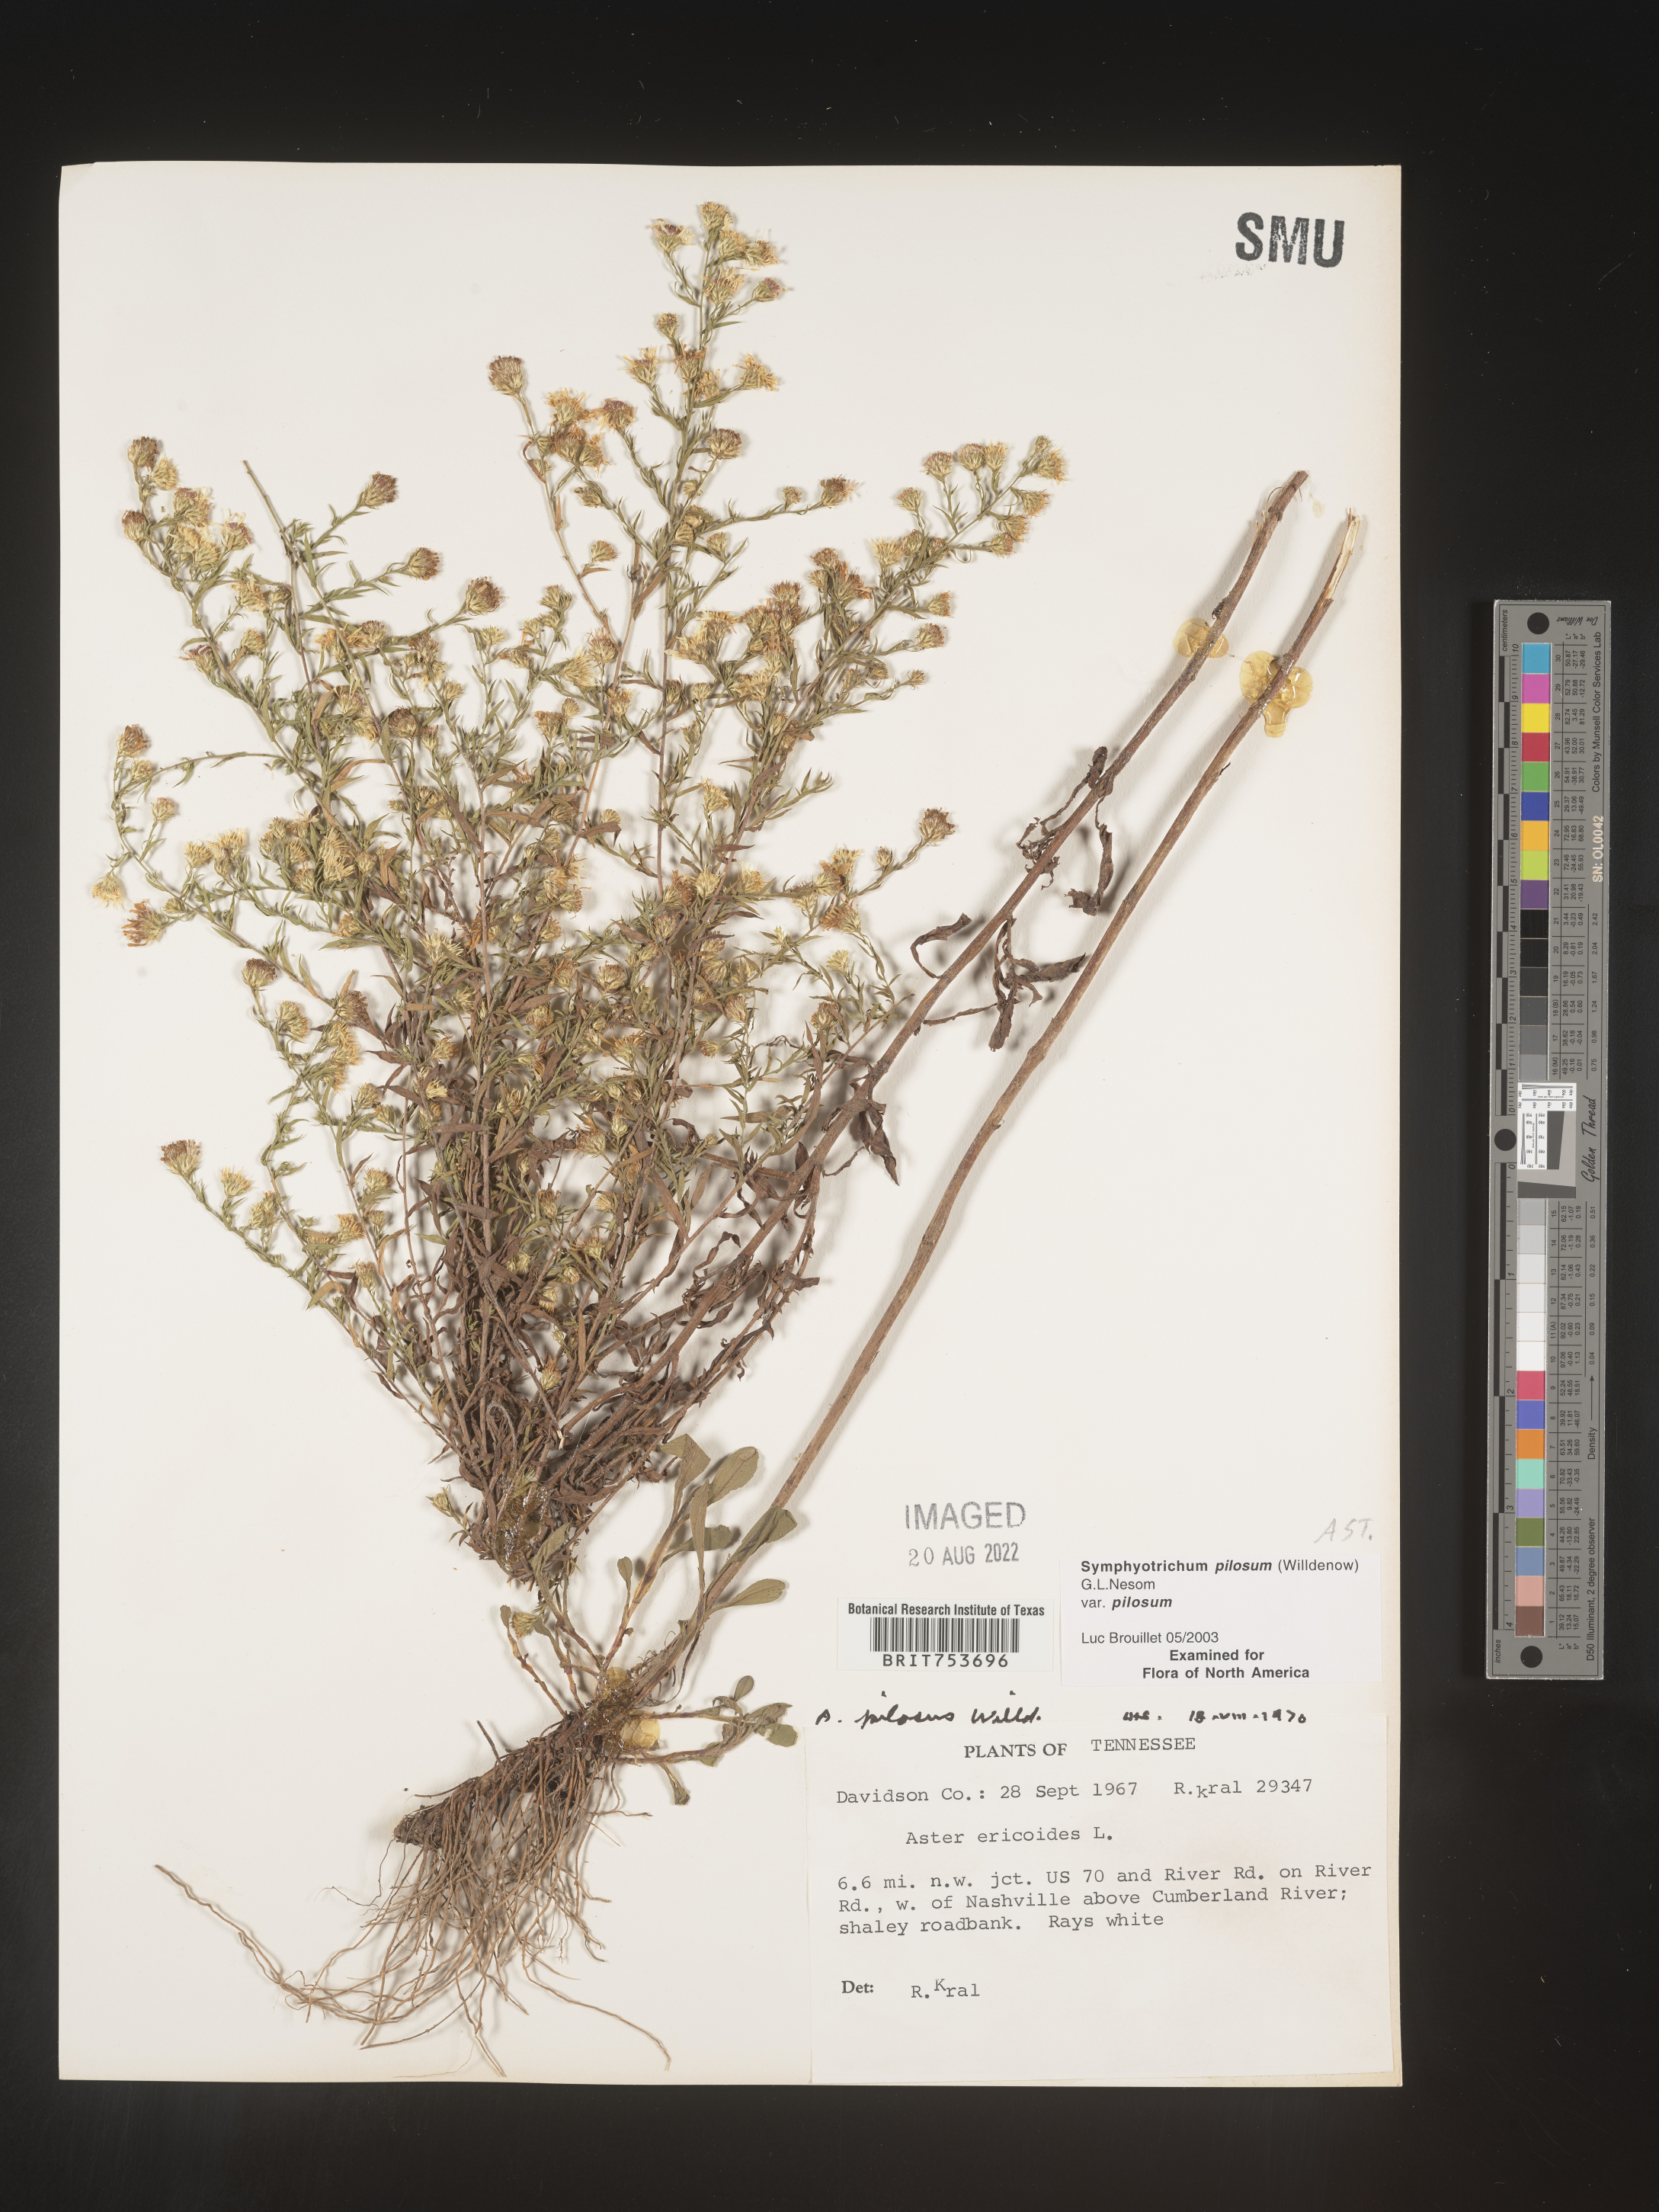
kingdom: Plantae
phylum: Tracheophyta
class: Magnoliopsida
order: Asterales
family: Asteraceae
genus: Symphyotrichum
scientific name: Symphyotrichum pilosum
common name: Awl aster
